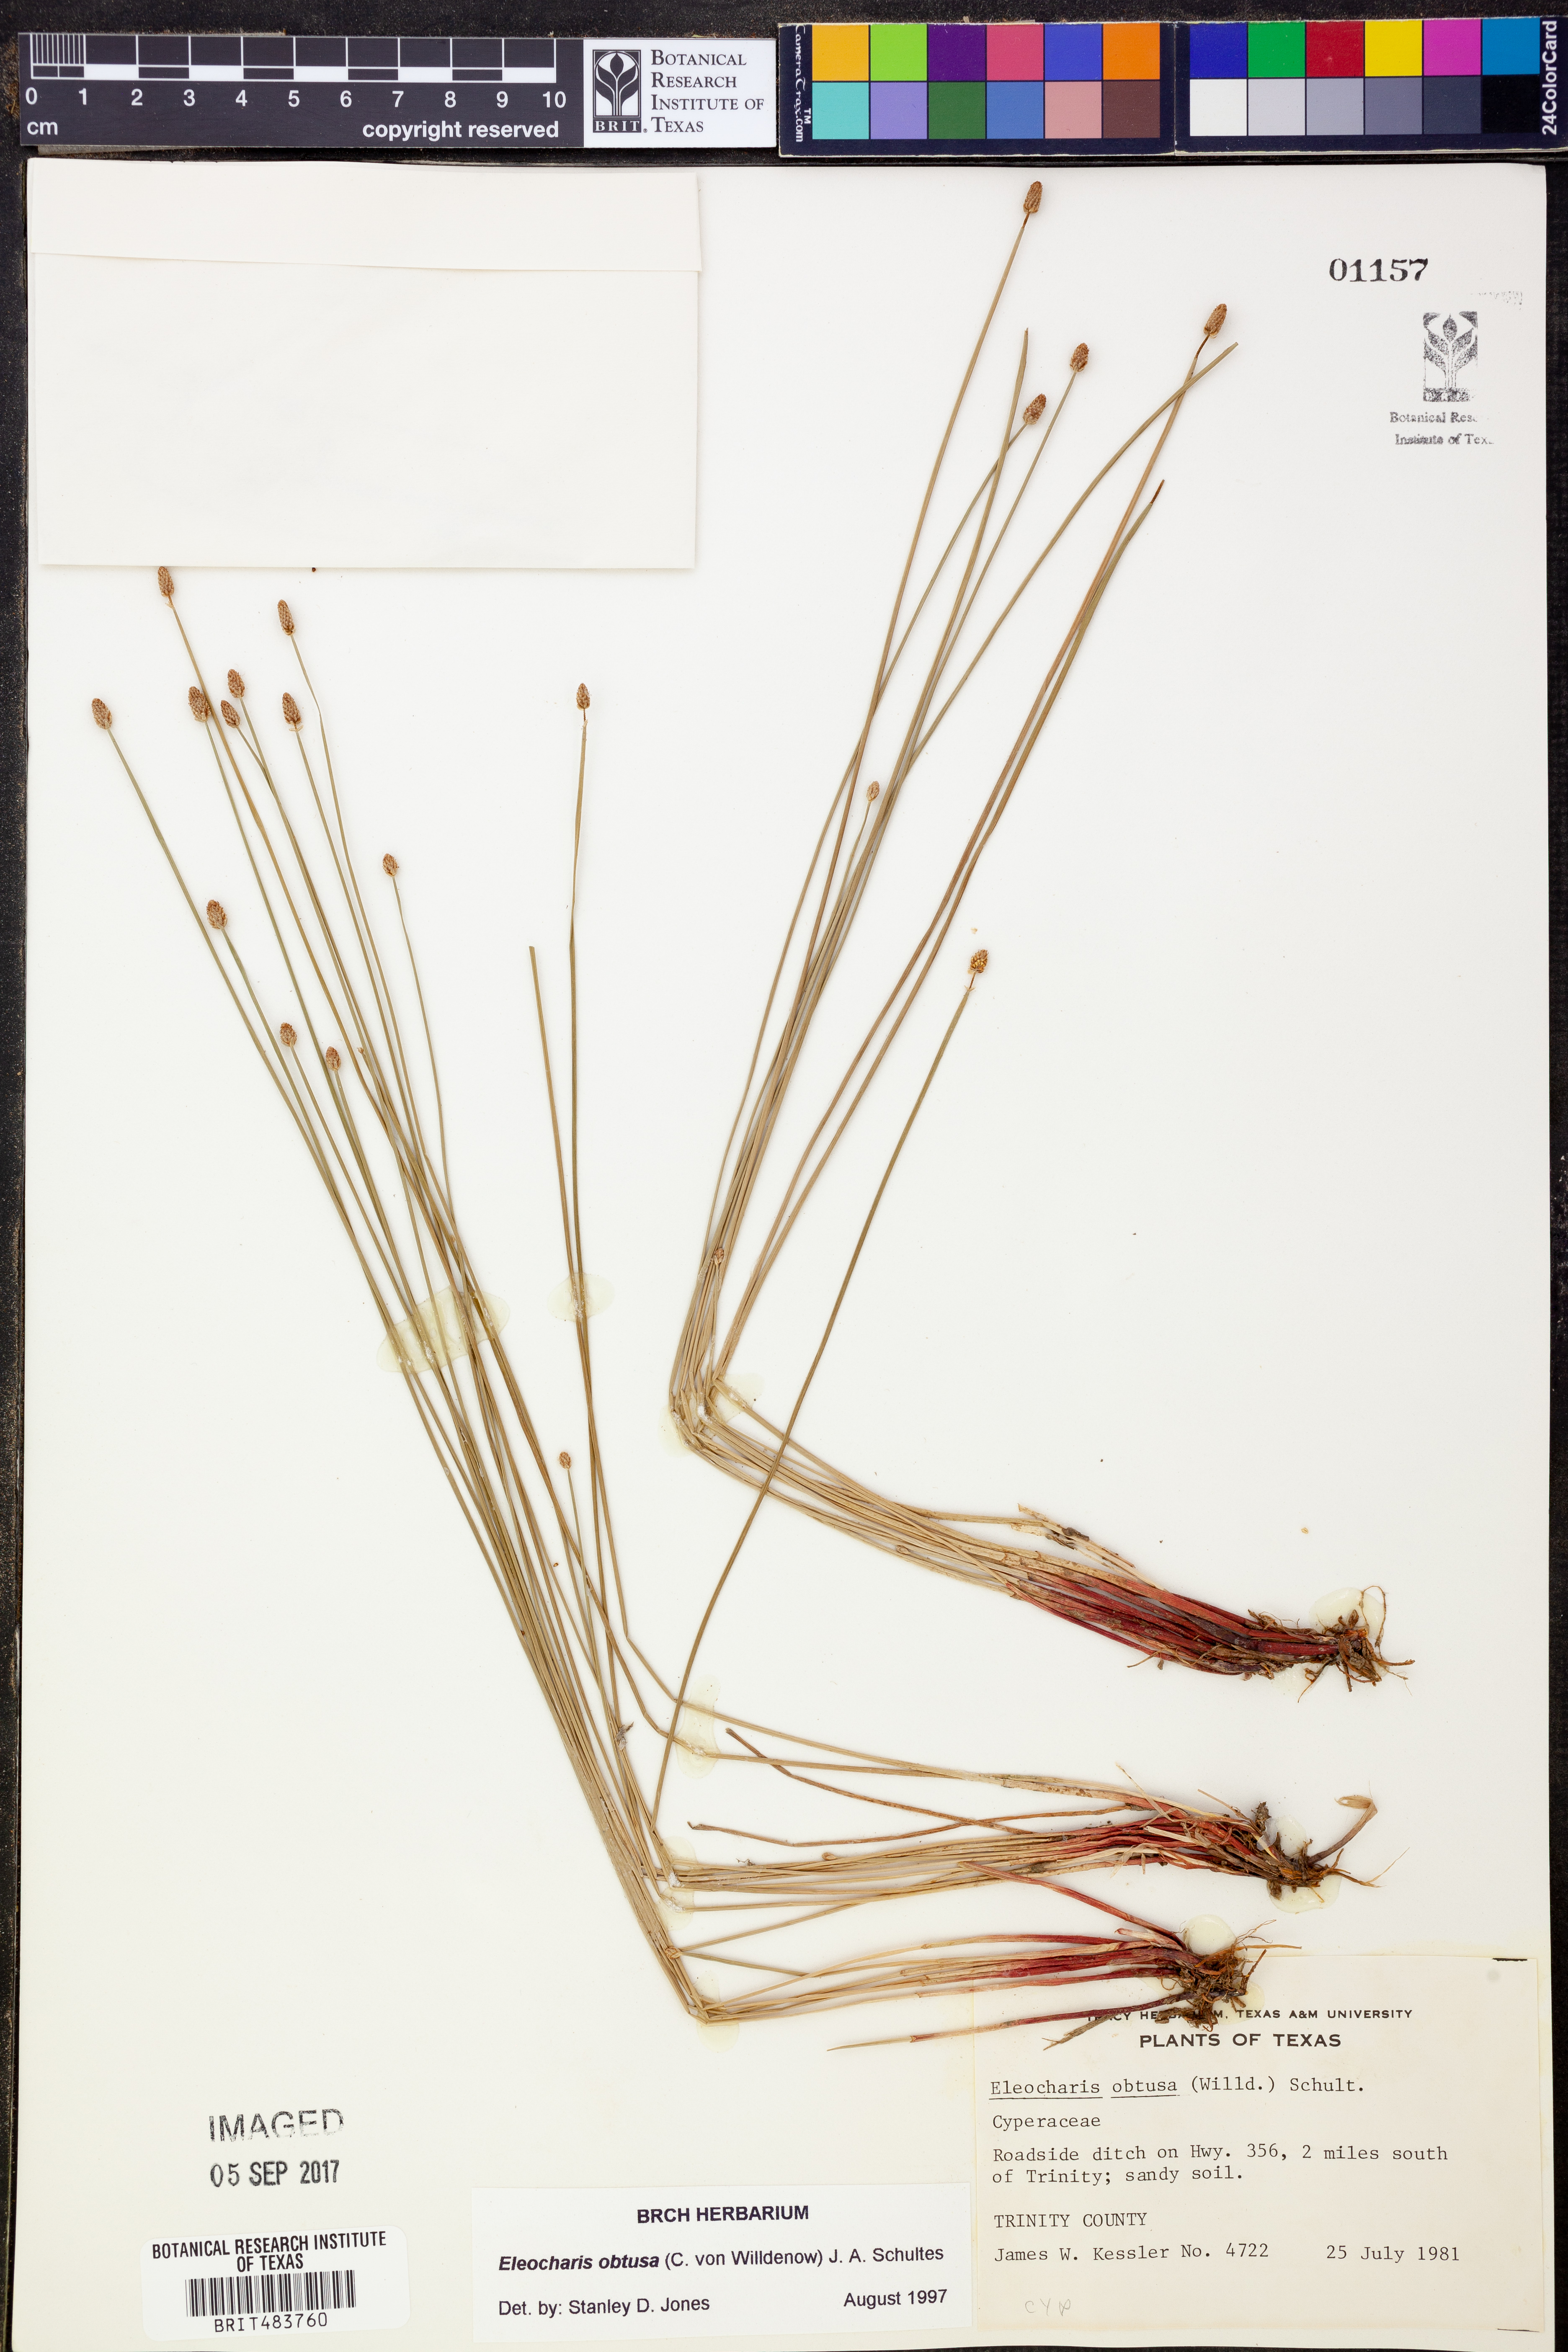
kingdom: Plantae
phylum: Tracheophyta
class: Liliopsida
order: Poales
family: Cyperaceae
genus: Eleocharis
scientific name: Eleocharis obtusa
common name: Blunt spikerush
